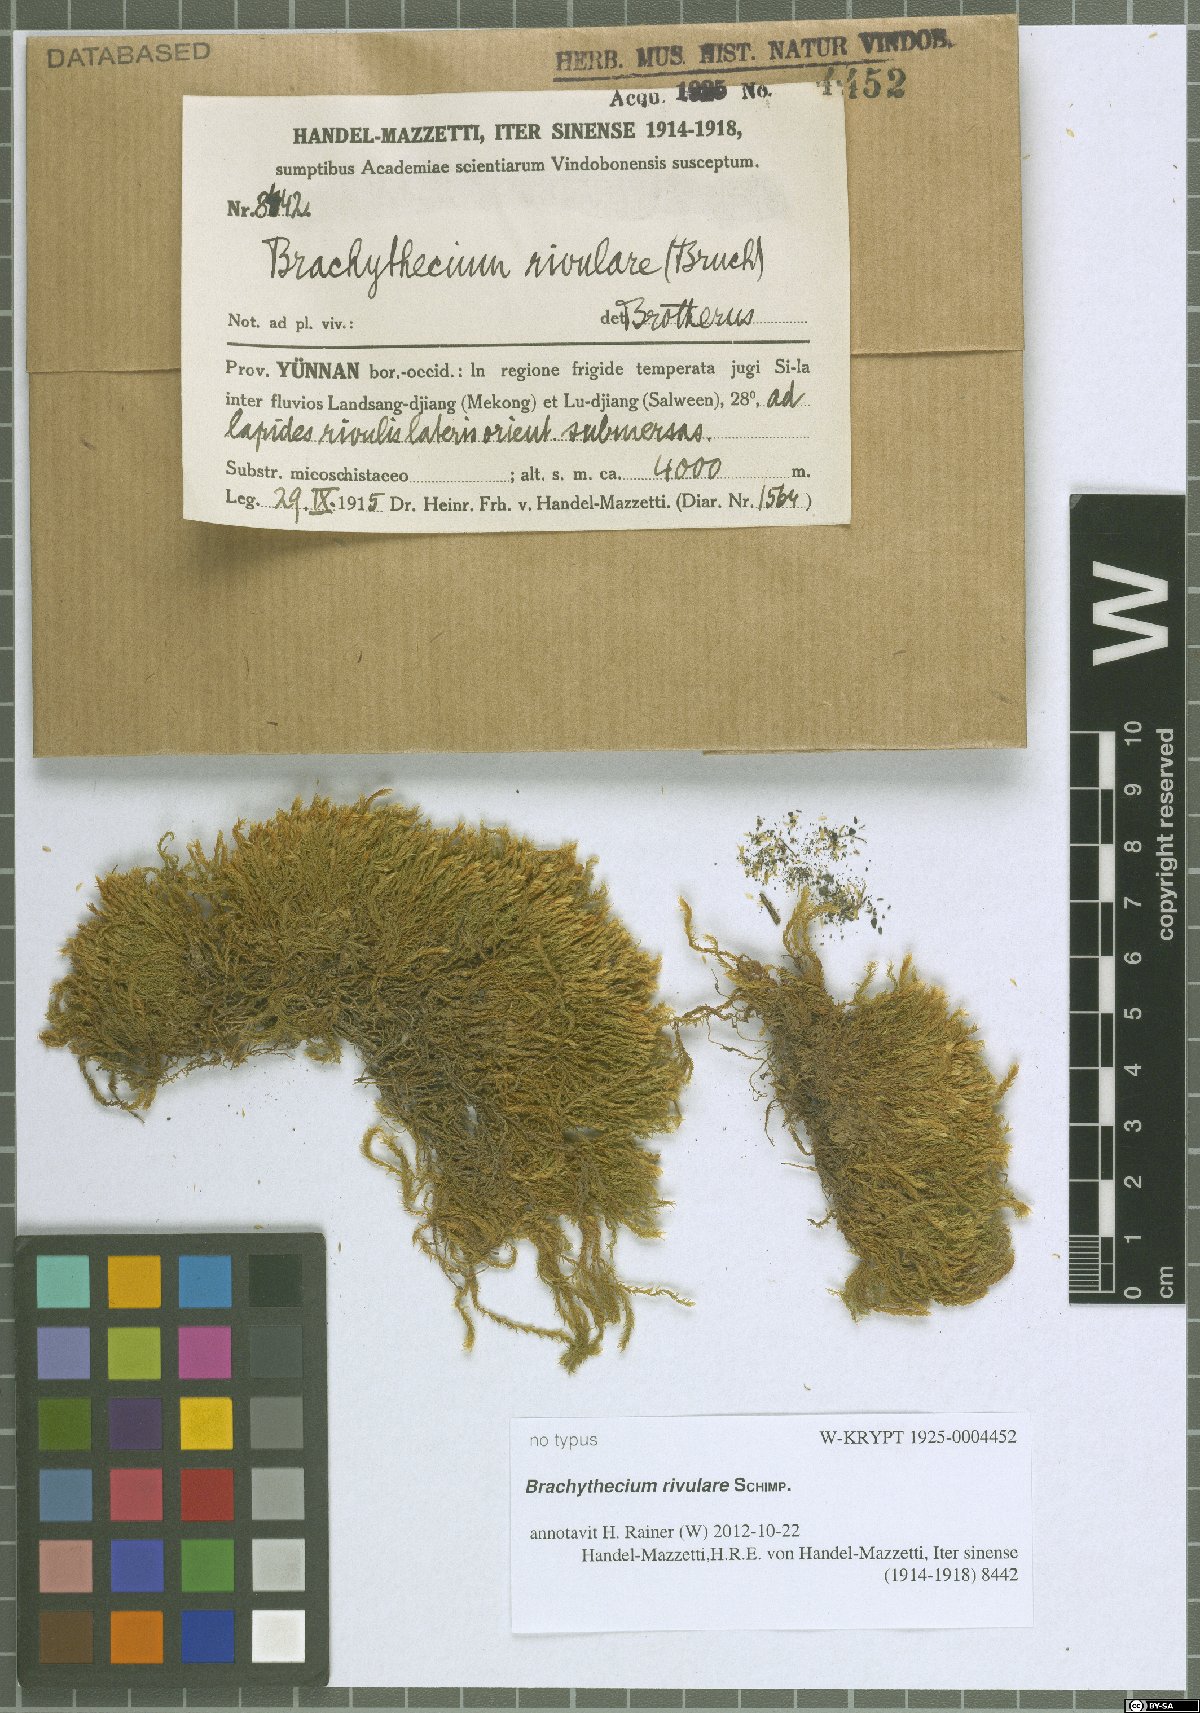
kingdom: Plantae
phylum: Bryophyta
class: Bryopsida
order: Hypnales
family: Brachytheciaceae
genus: Brachythecium
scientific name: Brachythecium rivulare
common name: River ragged moss
